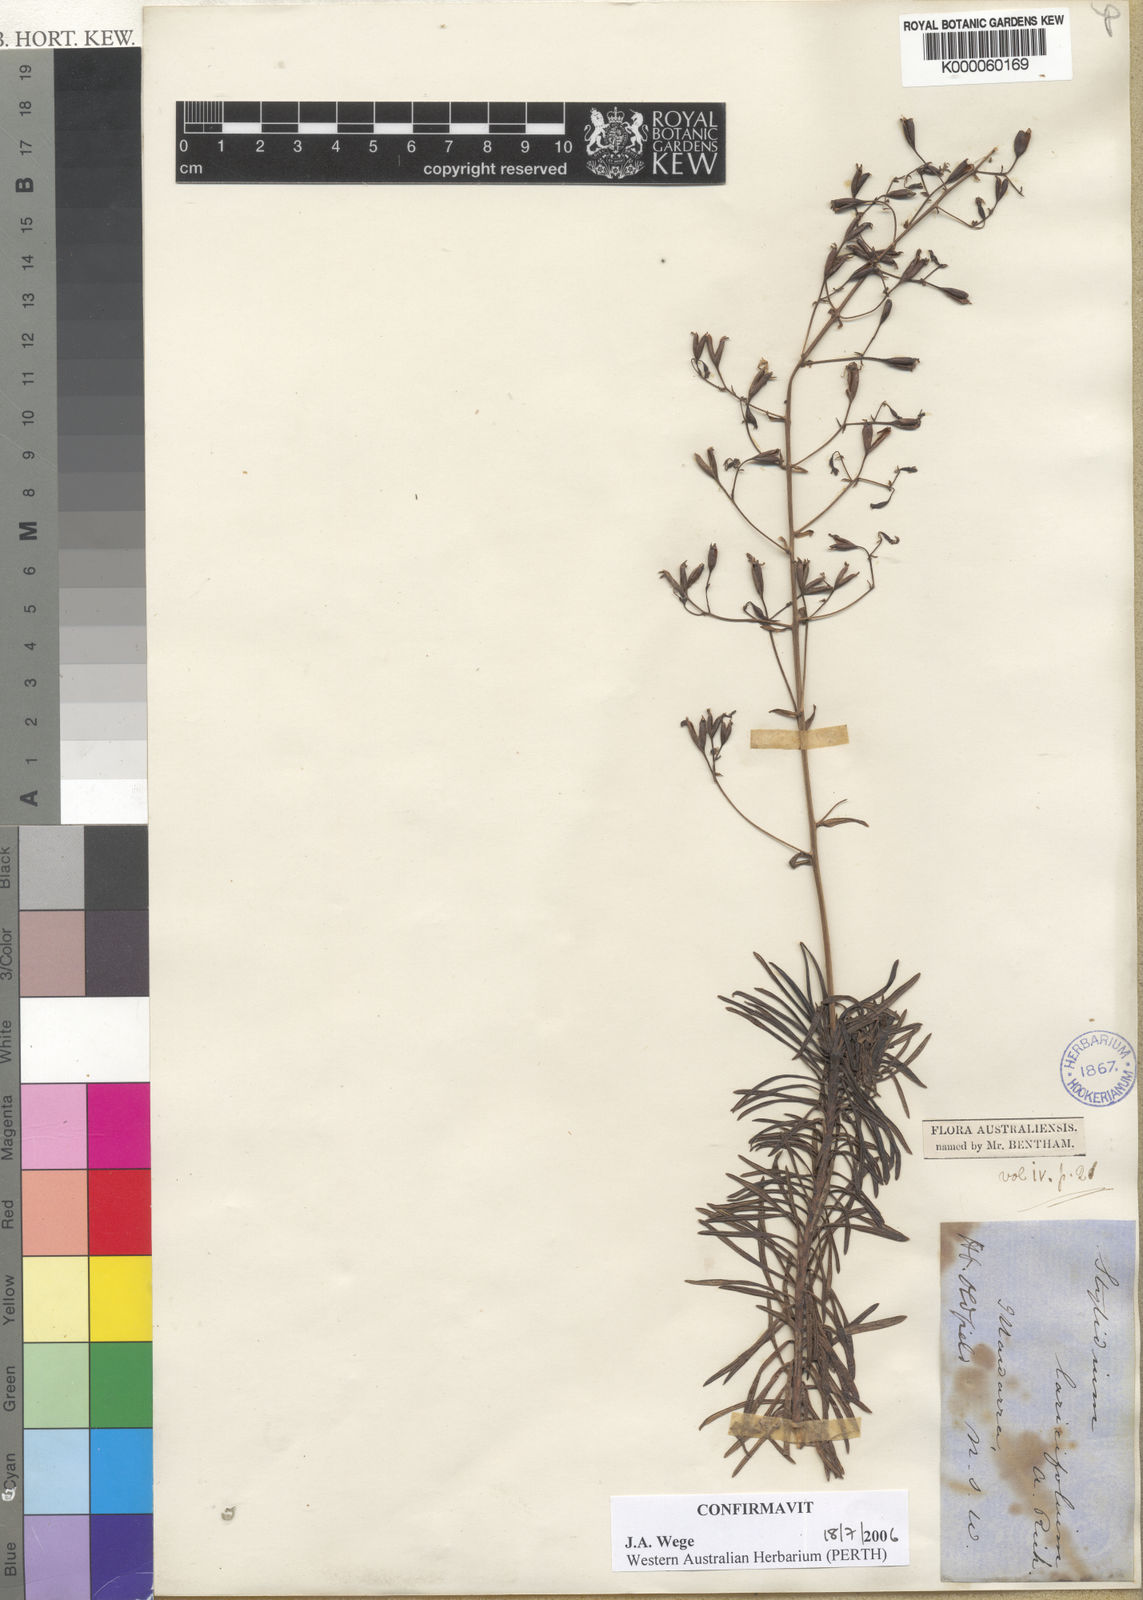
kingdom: Plantae
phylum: Tracheophyta
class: Magnoliopsida
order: Asterales
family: Stylidiaceae
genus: Stylidium
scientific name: Stylidium laricifolium
